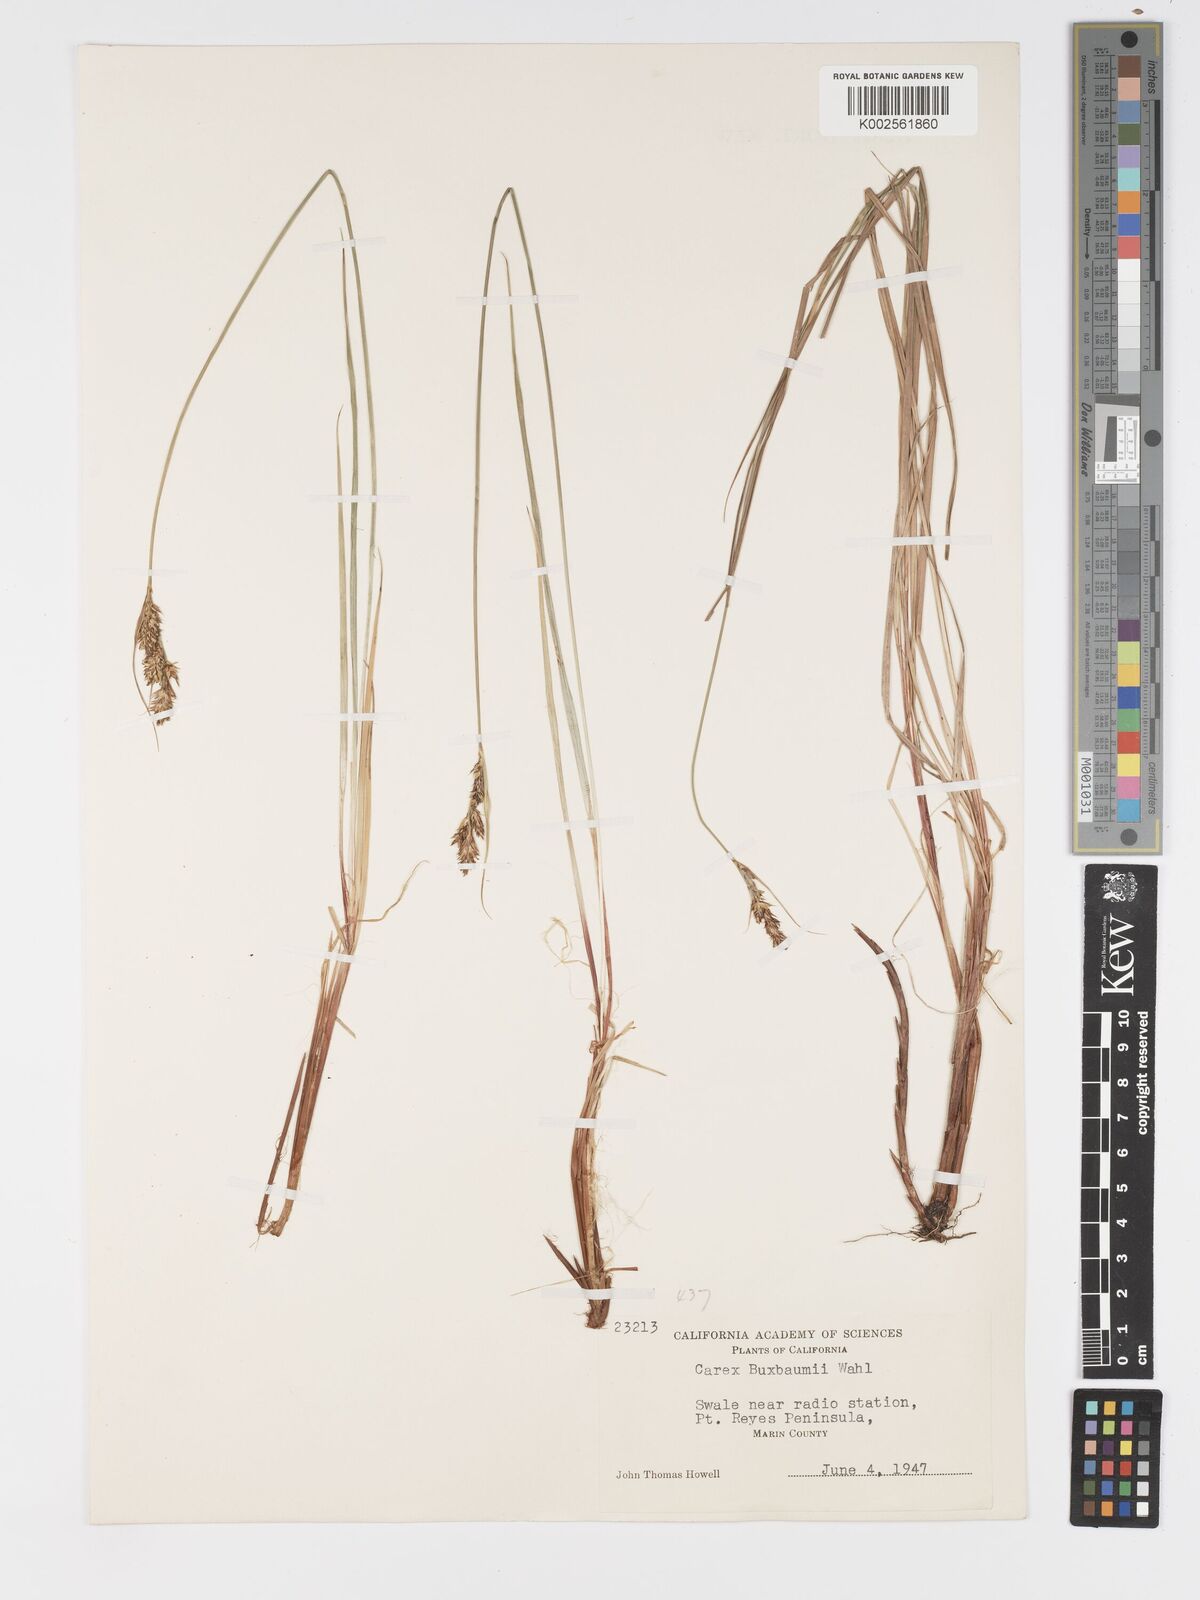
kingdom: Plantae
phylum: Tracheophyta
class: Liliopsida
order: Poales
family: Cyperaceae
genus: Carex
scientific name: Carex buxbaumii
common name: Club sedge
